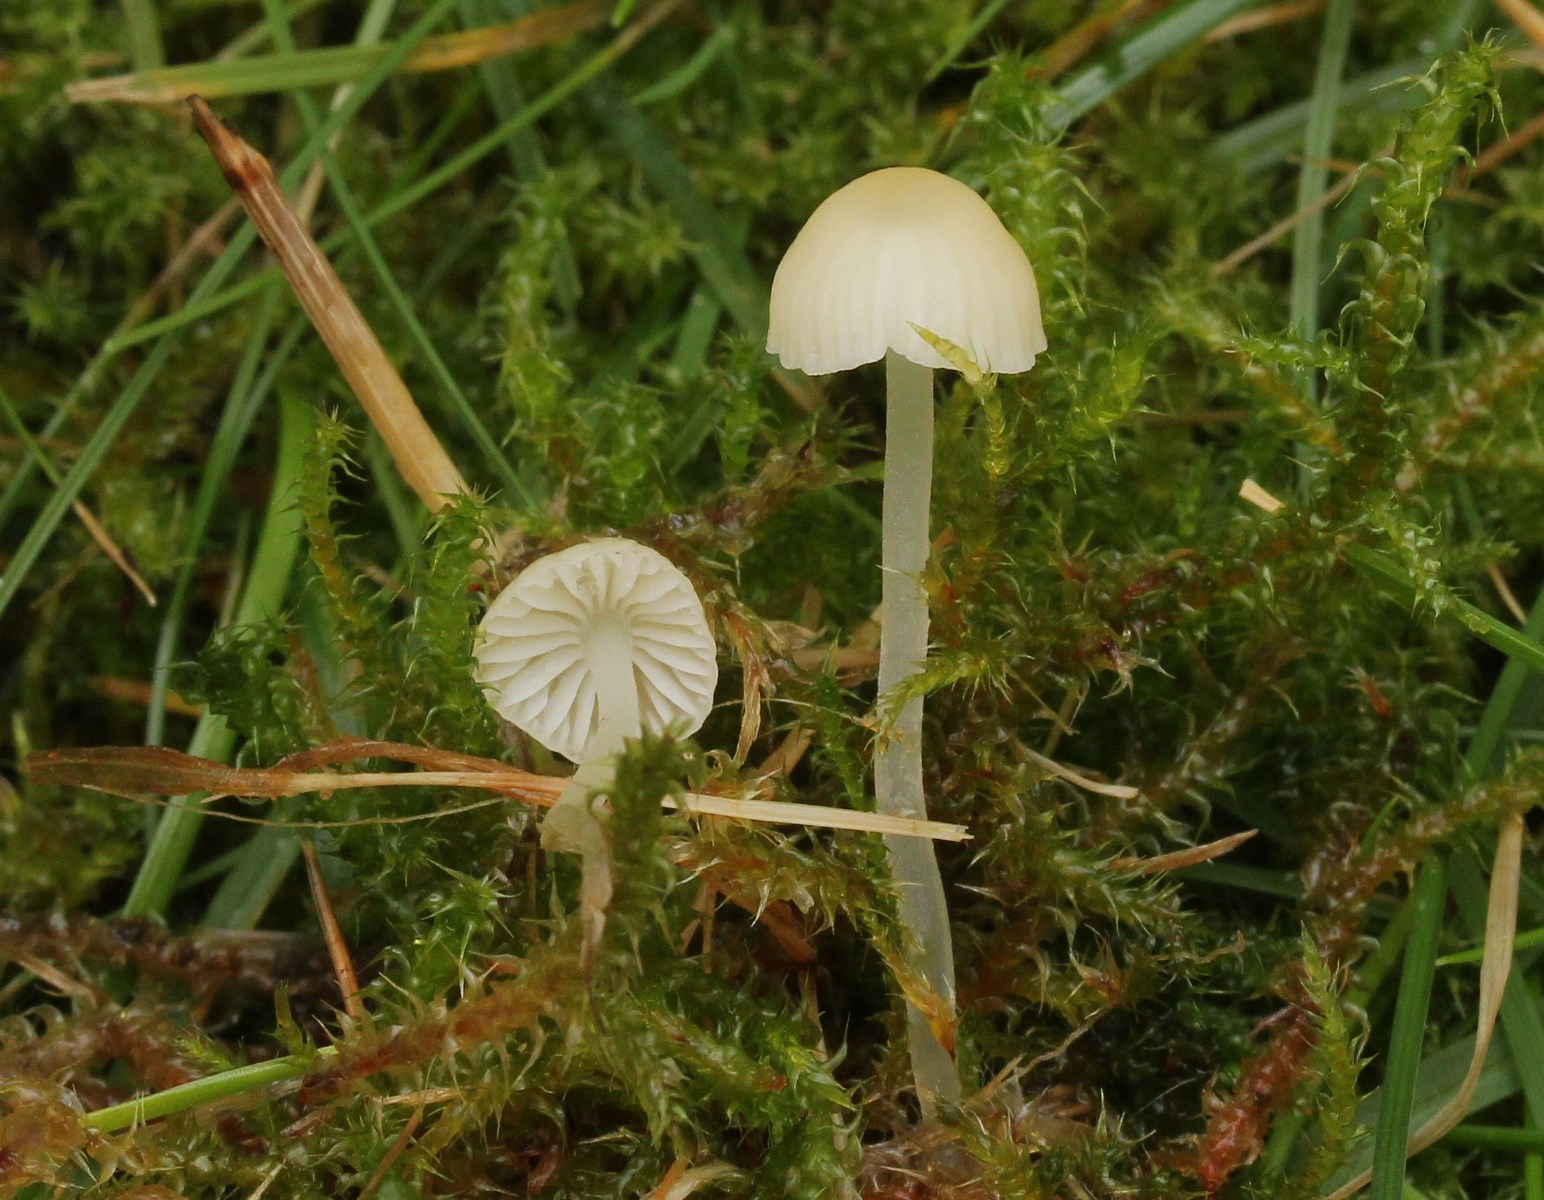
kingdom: Fungi
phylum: Basidiomycota
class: Agaricomycetes
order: Agaricales
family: Mycenaceae
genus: Atheniella
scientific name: Atheniella flavoalba
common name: gulhvid huesvamp
